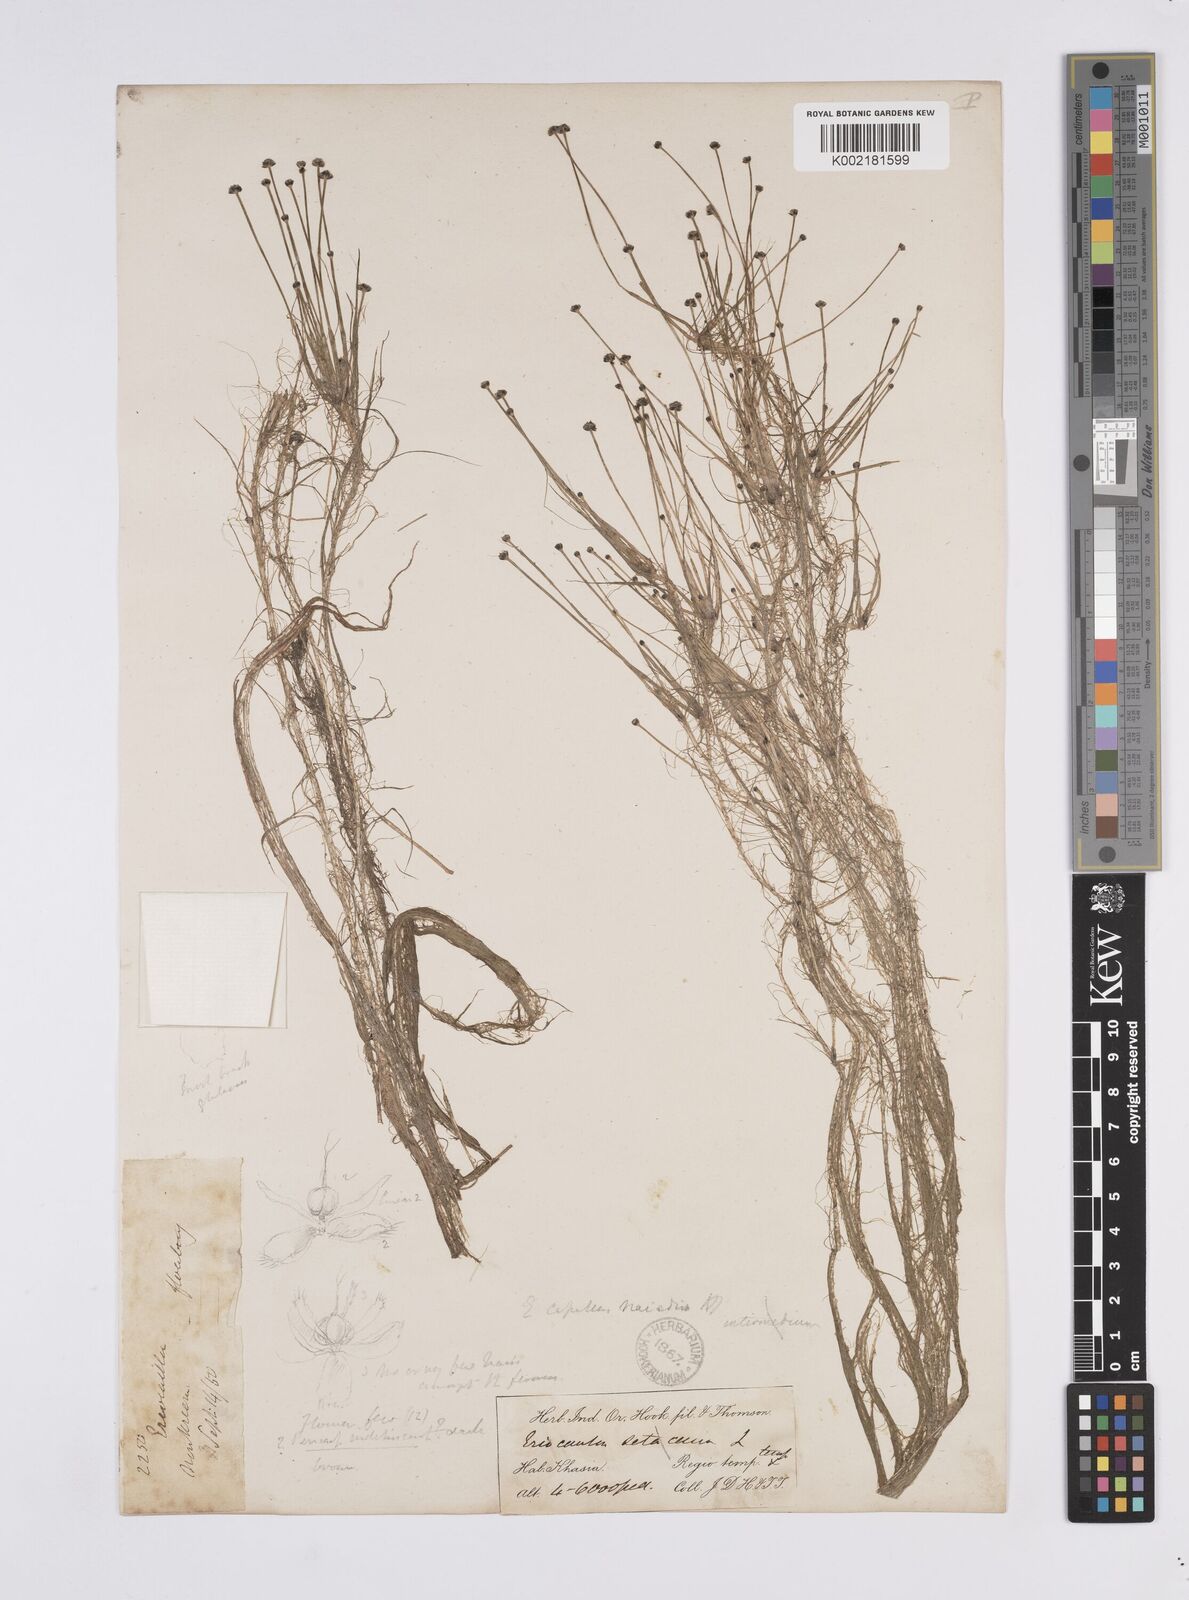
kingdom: Plantae
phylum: Tracheophyta
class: Liliopsida
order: Poales
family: Eriocaulaceae
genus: Eriocaulon
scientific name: Eriocaulon setaceum
